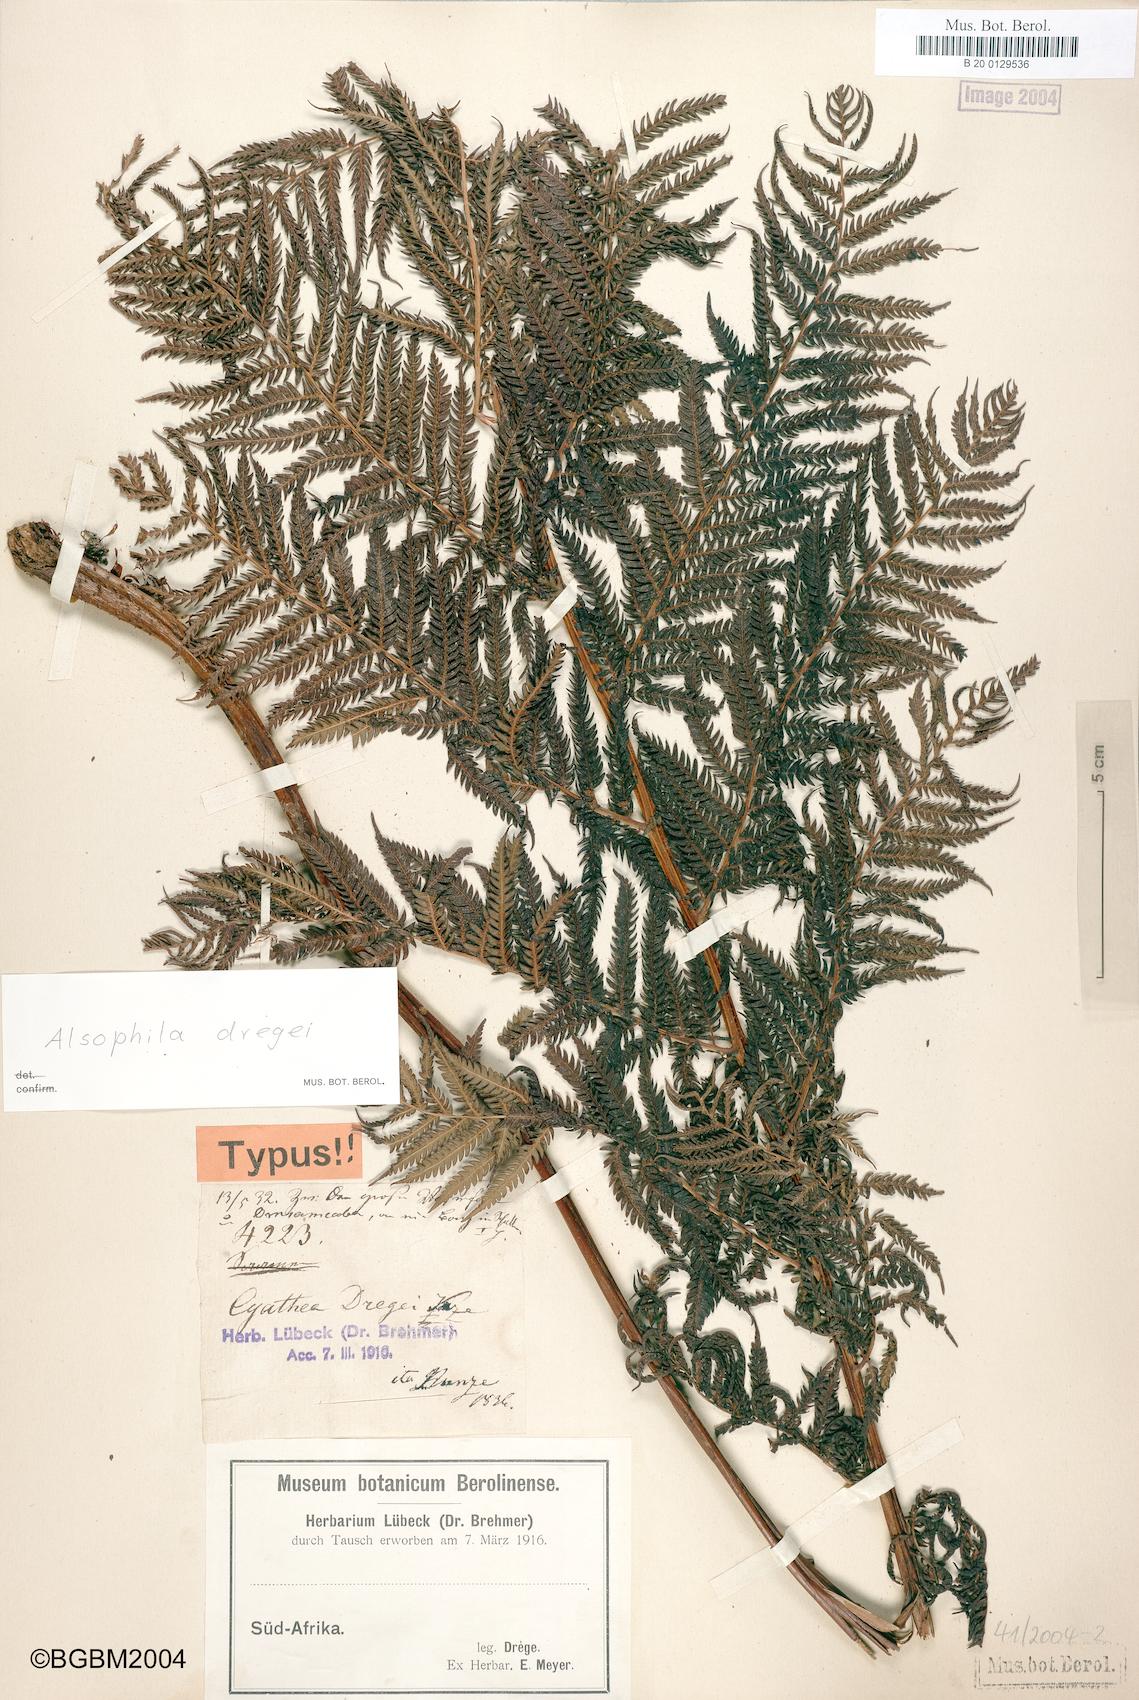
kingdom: Plantae
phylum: Tracheophyta
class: Polypodiopsida
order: Cyatheales
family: Cyatheaceae
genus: Alsophila
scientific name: Alsophila dregei
